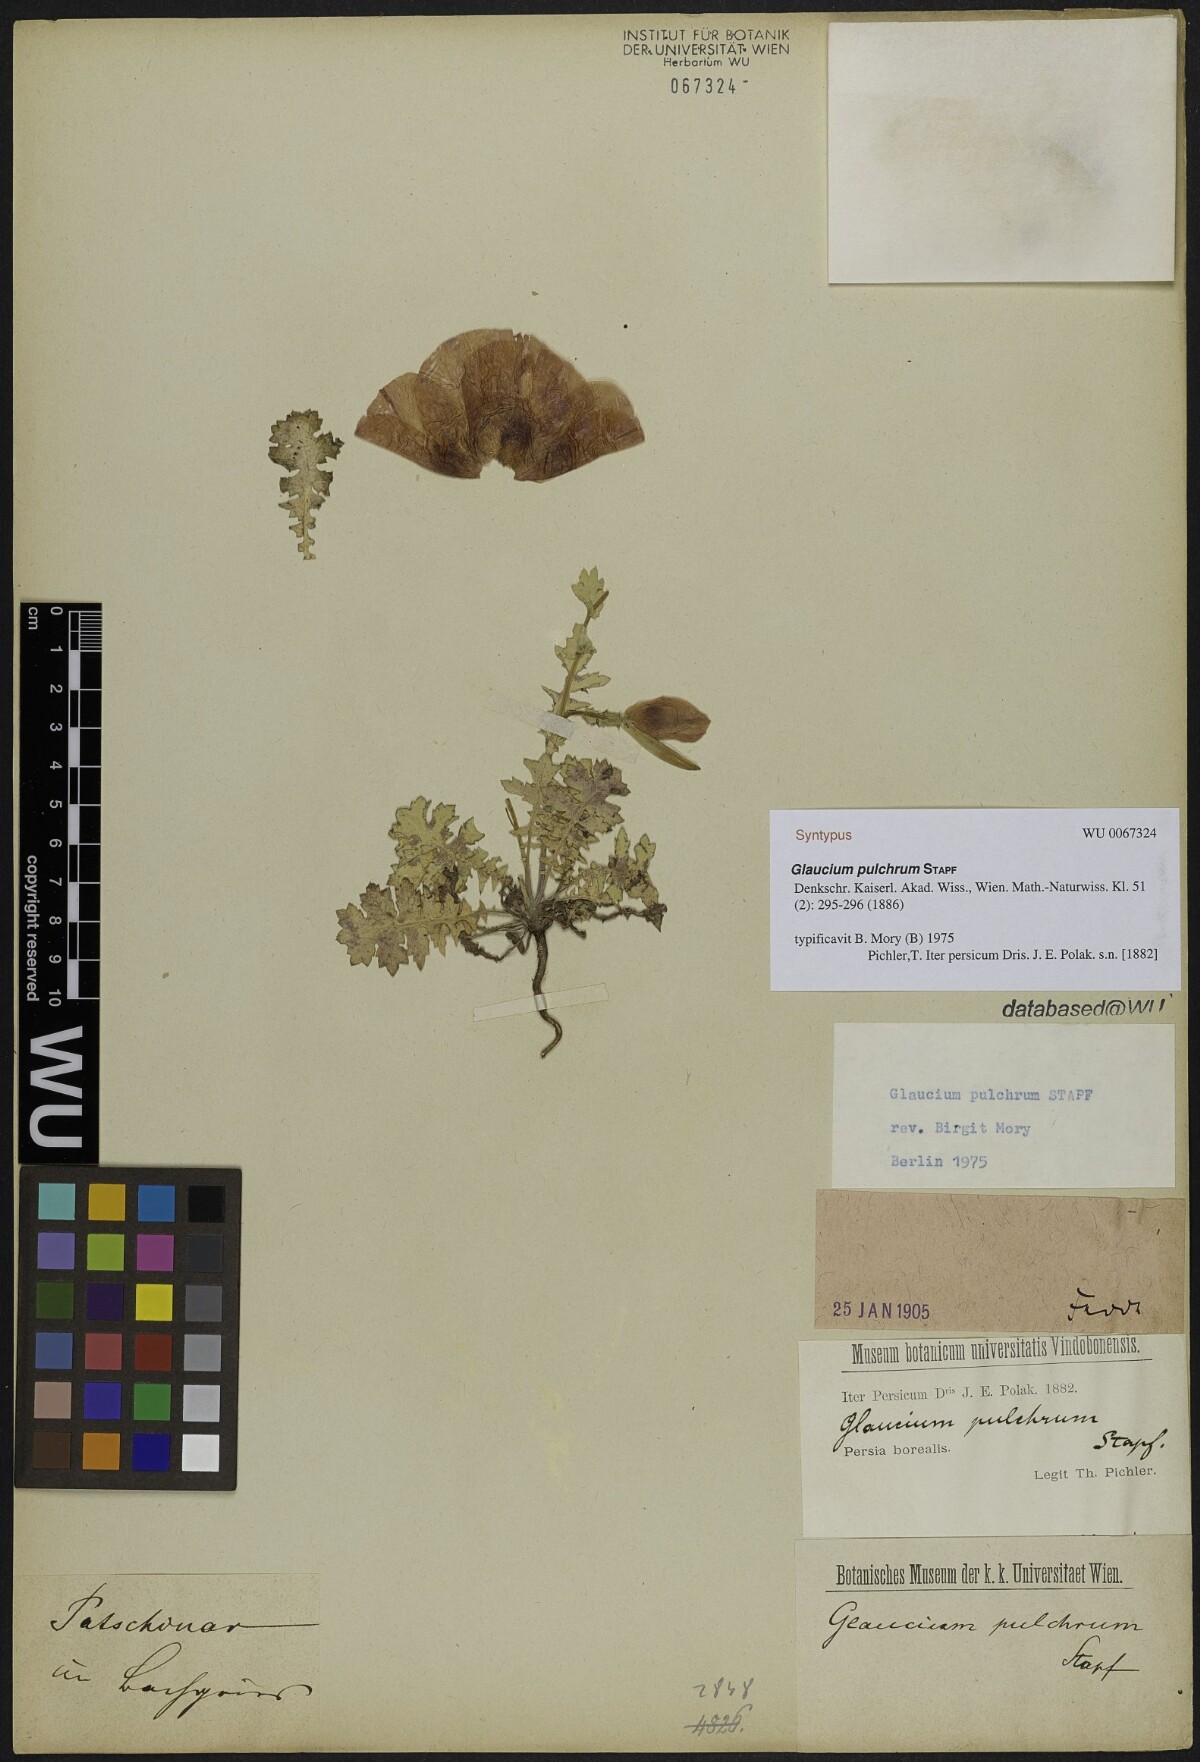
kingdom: Plantae
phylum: Tracheophyta
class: Magnoliopsida
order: Ranunculales
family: Papaveraceae
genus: Glaucium
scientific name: Glaucium oxylobum
